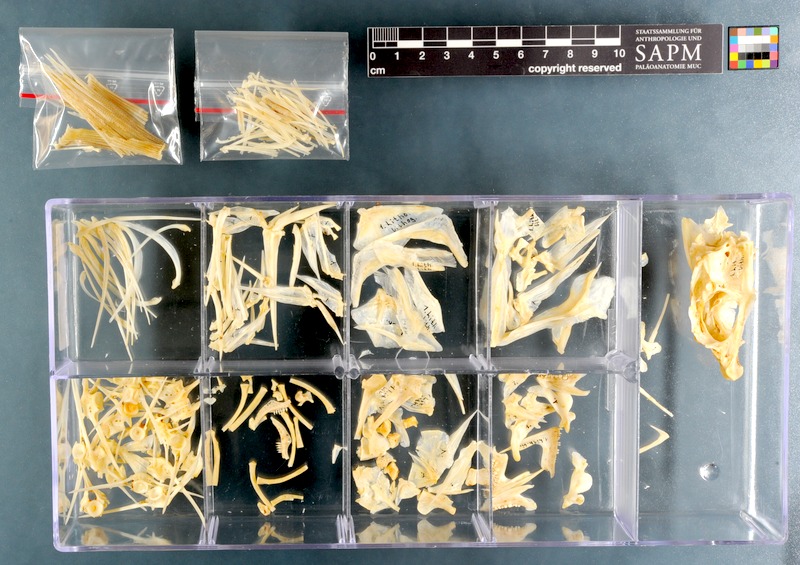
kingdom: Animalia
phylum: Chordata
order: Perciformes
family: Sparidae
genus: Lithognathus
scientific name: Lithognathus lithognathus
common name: White steenbras
